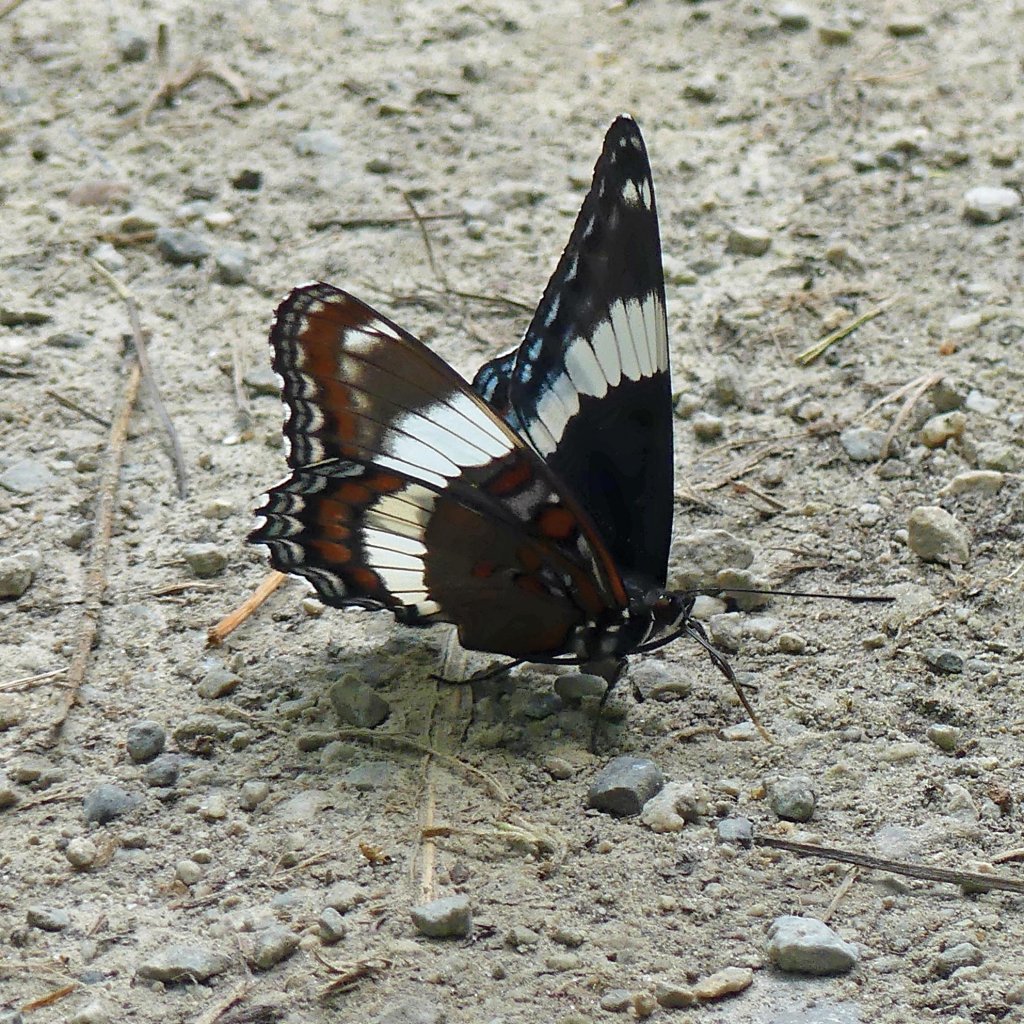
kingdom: Animalia
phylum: Arthropoda
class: Insecta
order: Lepidoptera
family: Nymphalidae
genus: Limenitis
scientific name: Limenitis arthemis
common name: Red-spotted Admiral
